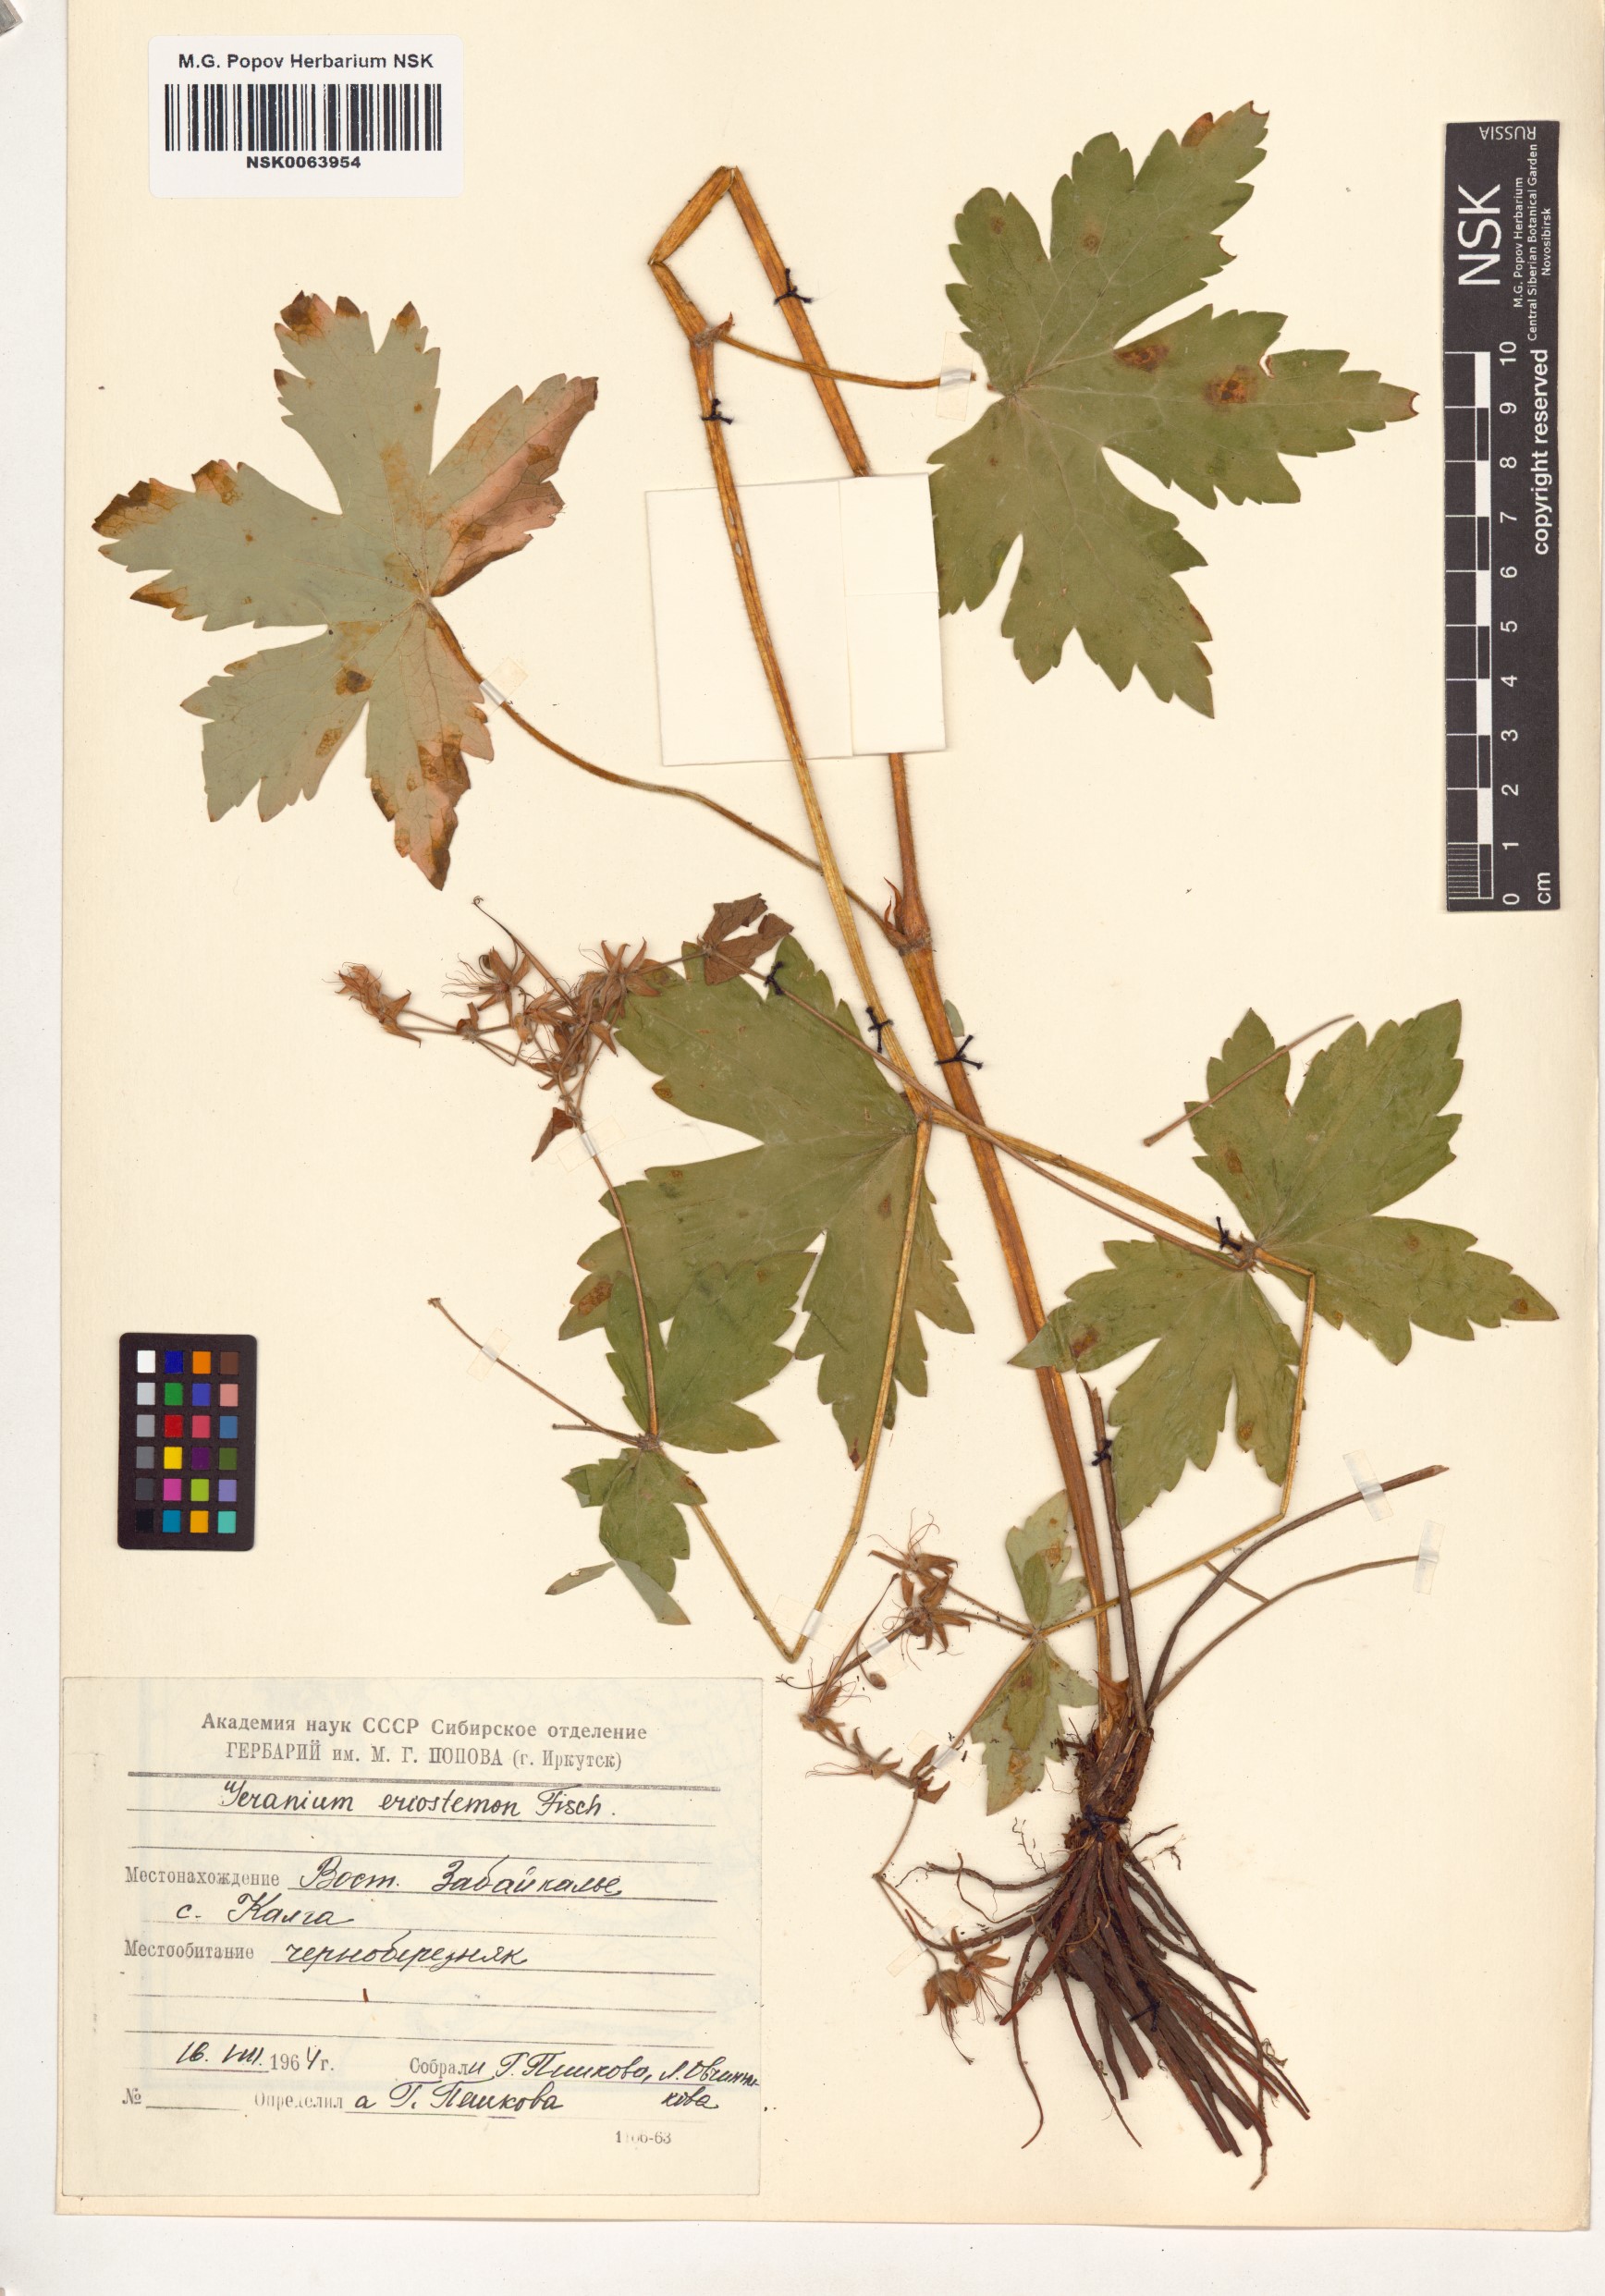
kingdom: Plantae
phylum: Tracheophyta
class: Magnoliopsida
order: Geraniales
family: Geraniaceae
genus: Geranium
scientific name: Geranium platyanthum
